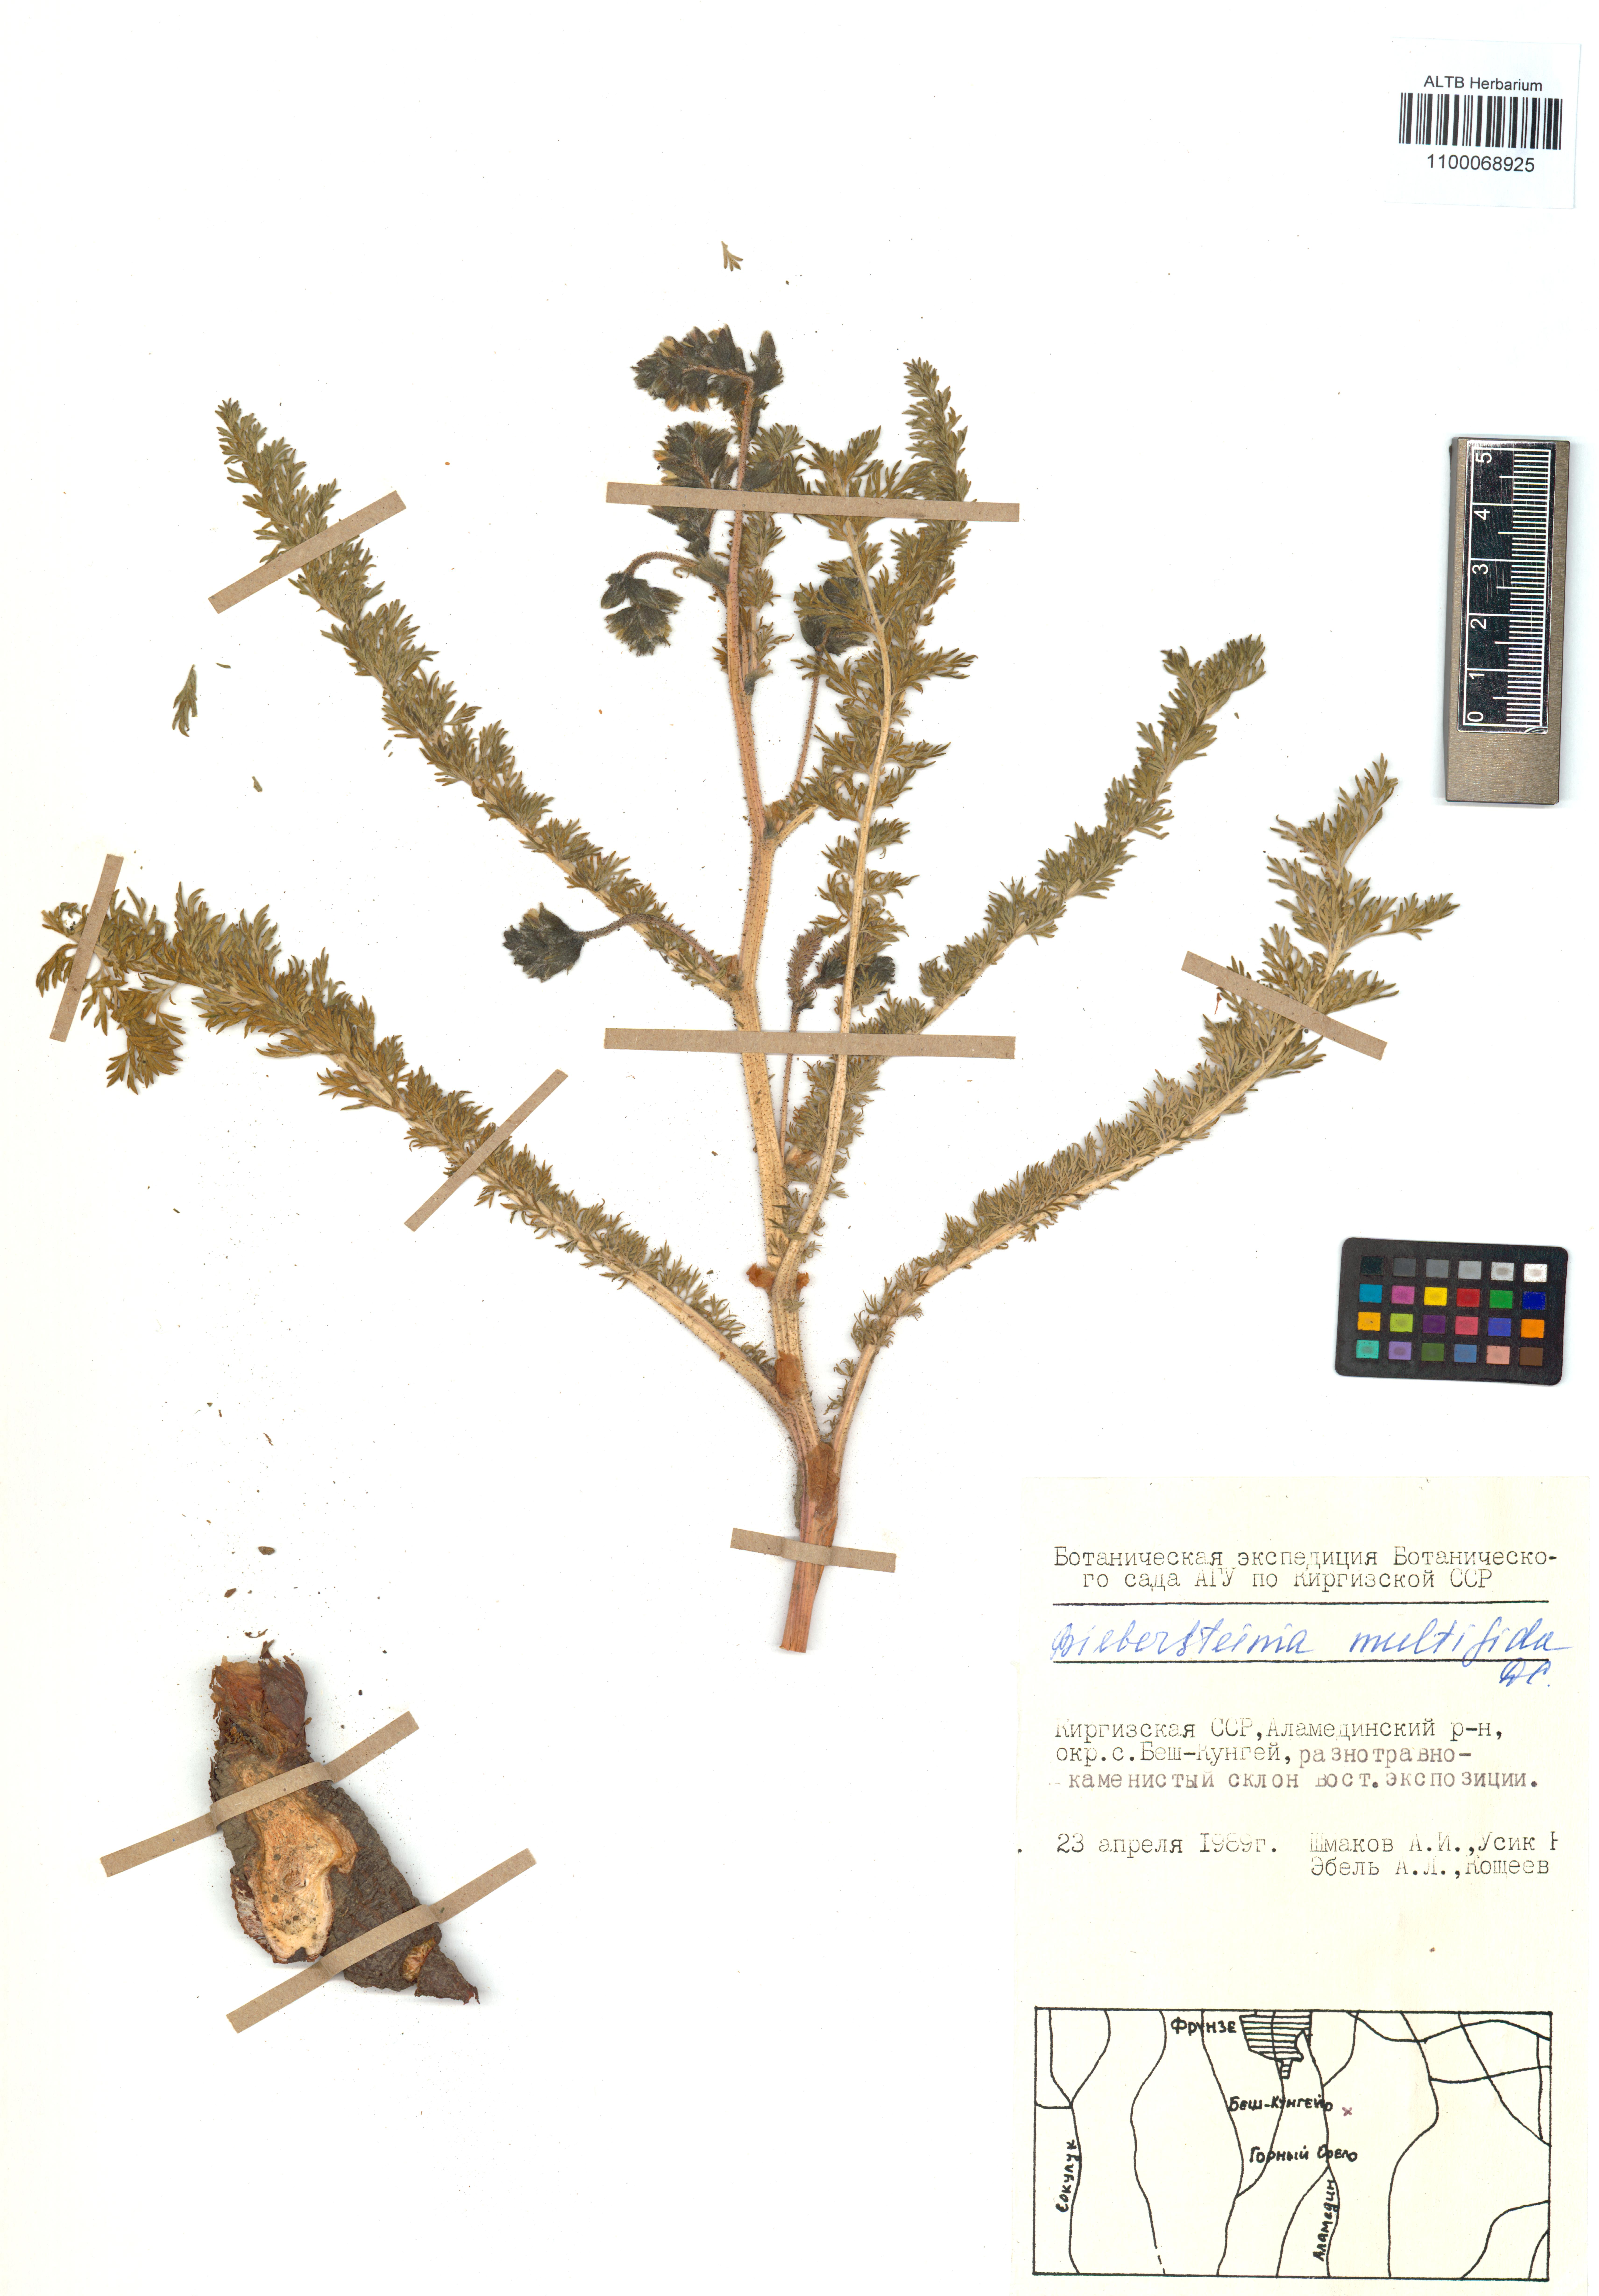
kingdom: Plantae
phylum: Tracheophyta
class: Magnoliopsida
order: Sapindales
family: Biebersteiniaceae
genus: Biebersteinia
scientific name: Biebersteinia multifida
